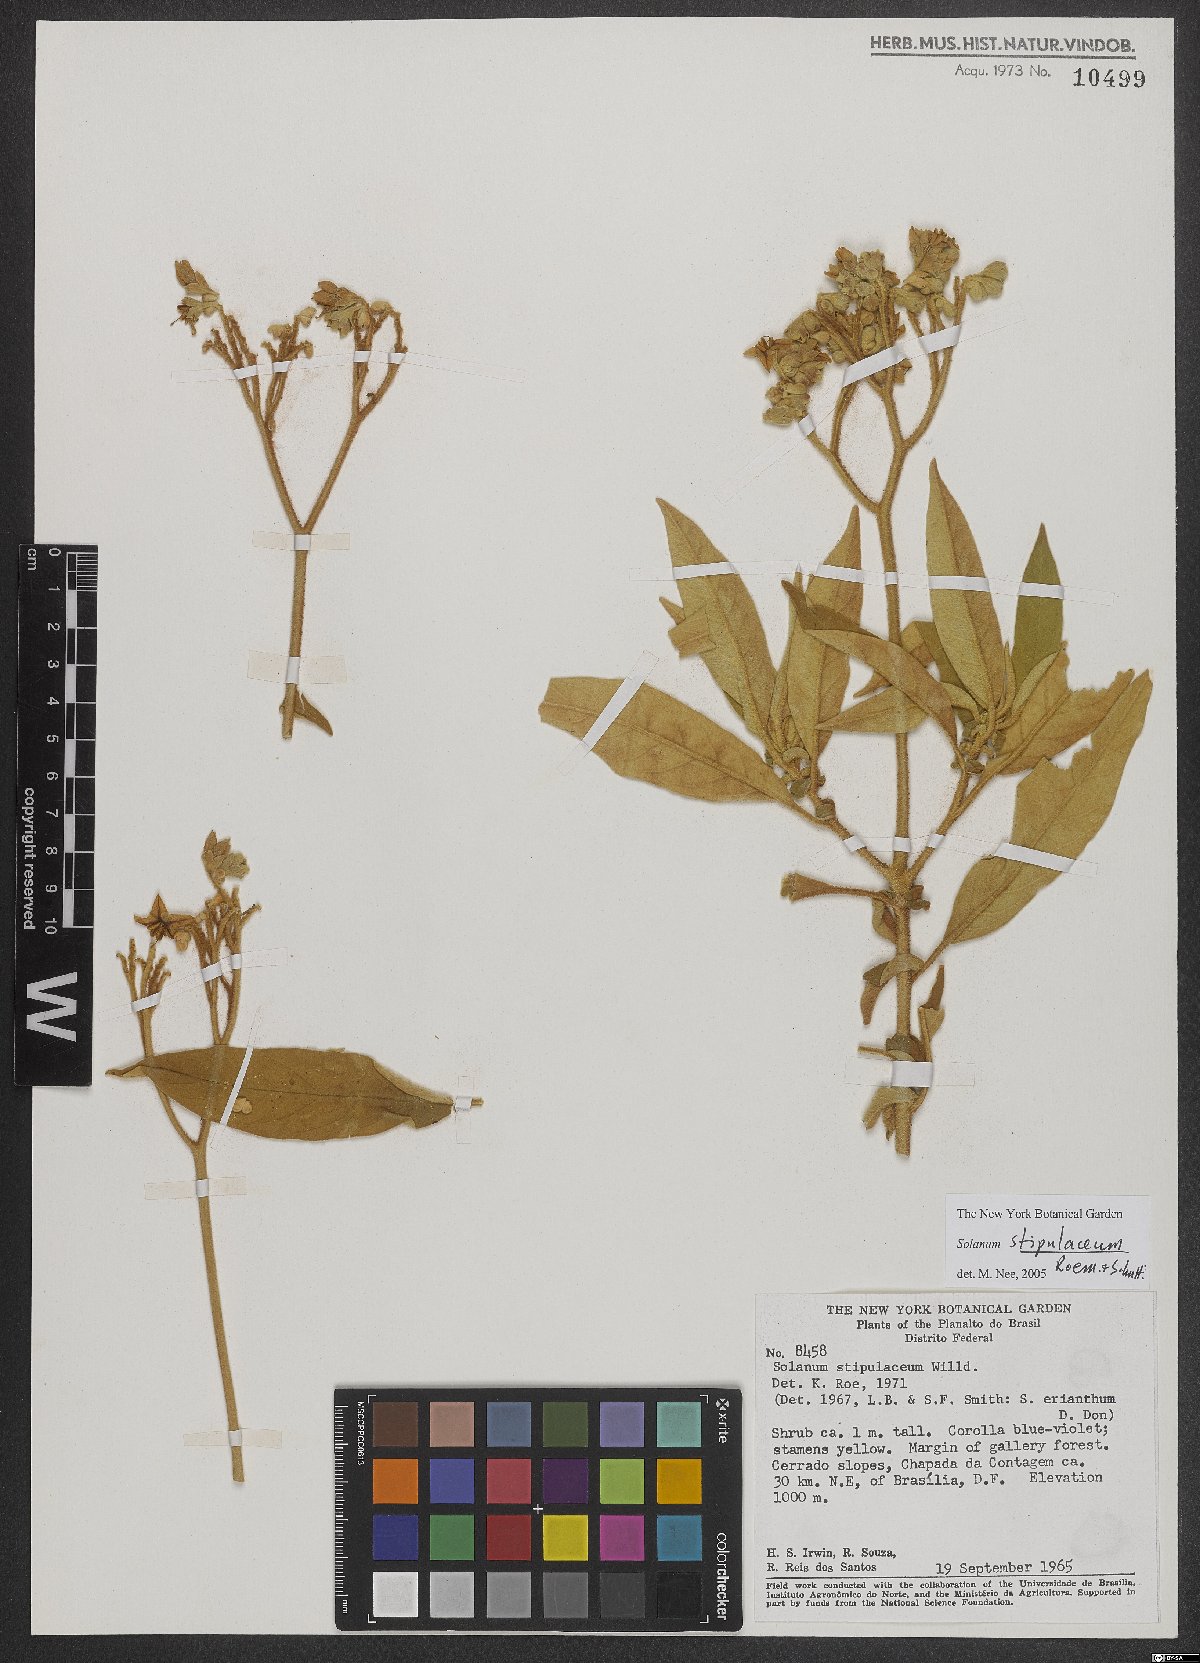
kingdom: Plantae
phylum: Tracheophyta
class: Magnoliopsida
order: Solanales
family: Solanaceae
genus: Solanum
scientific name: Solanum stipulaceum
